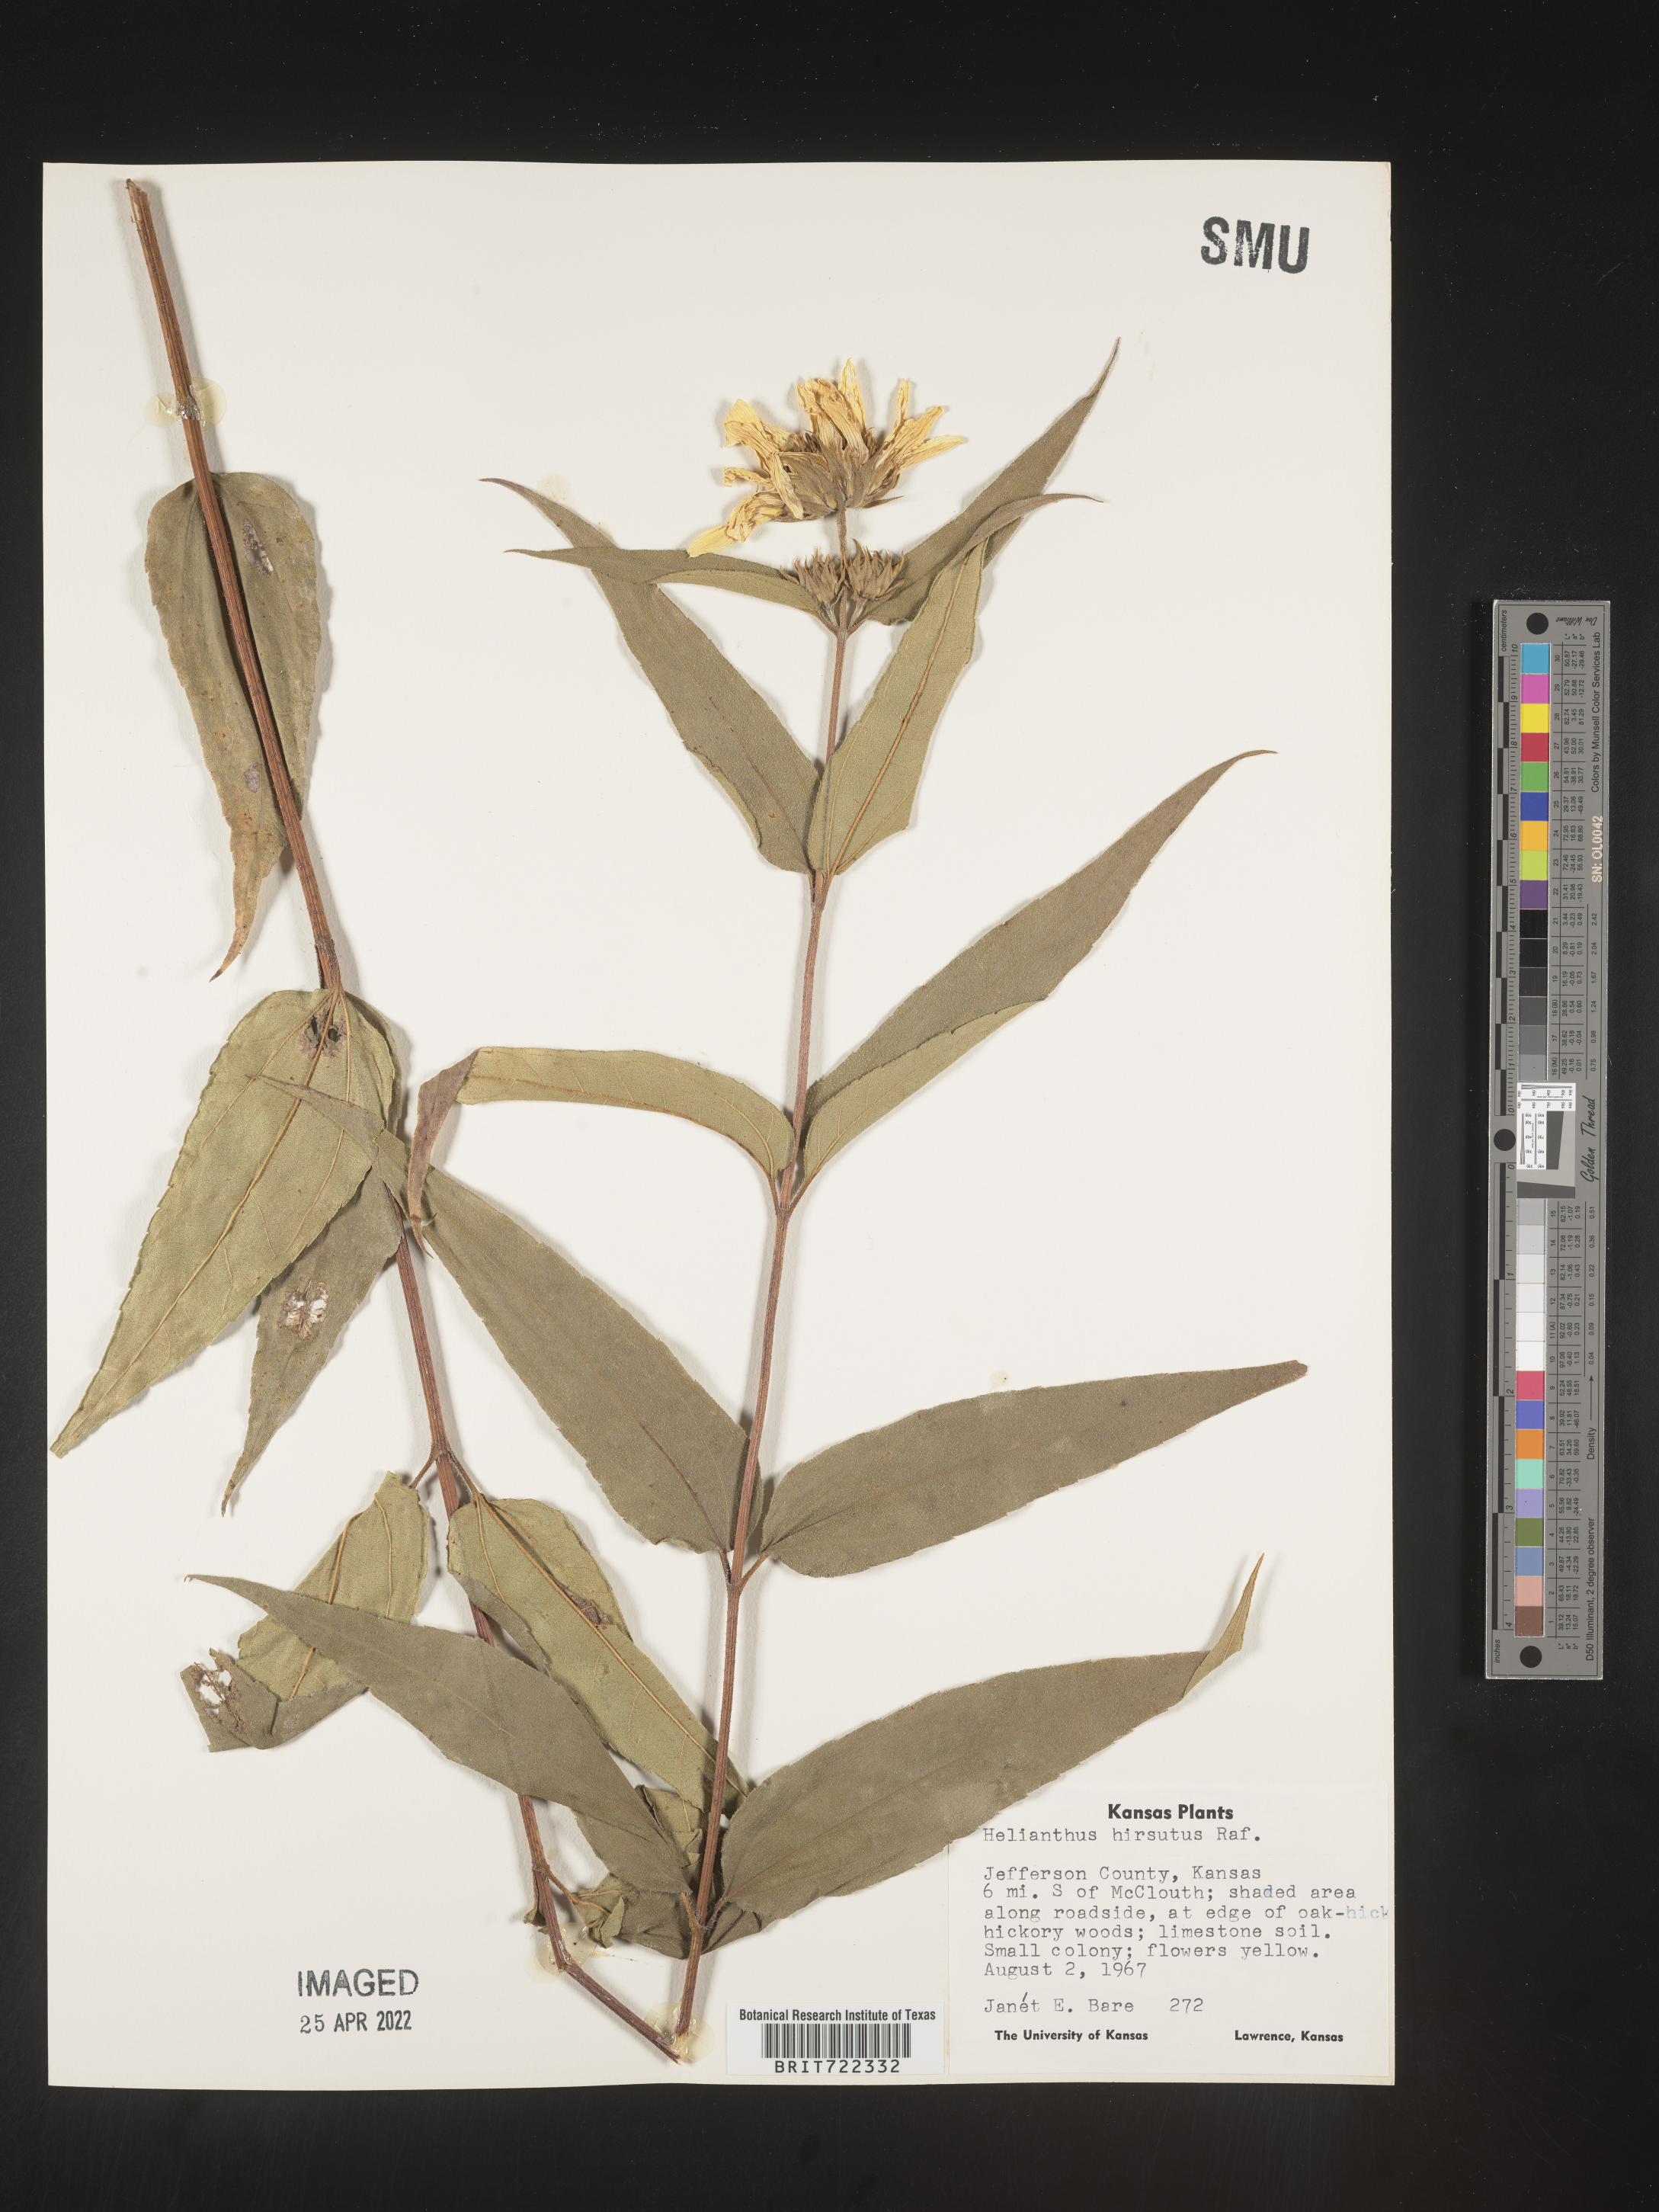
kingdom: Plantae
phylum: Tracheophyta
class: Magnoliopsida
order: Asterales
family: Asteraceae
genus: Helianthus
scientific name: Helianthus hirsutus
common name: Hairy sunflower
